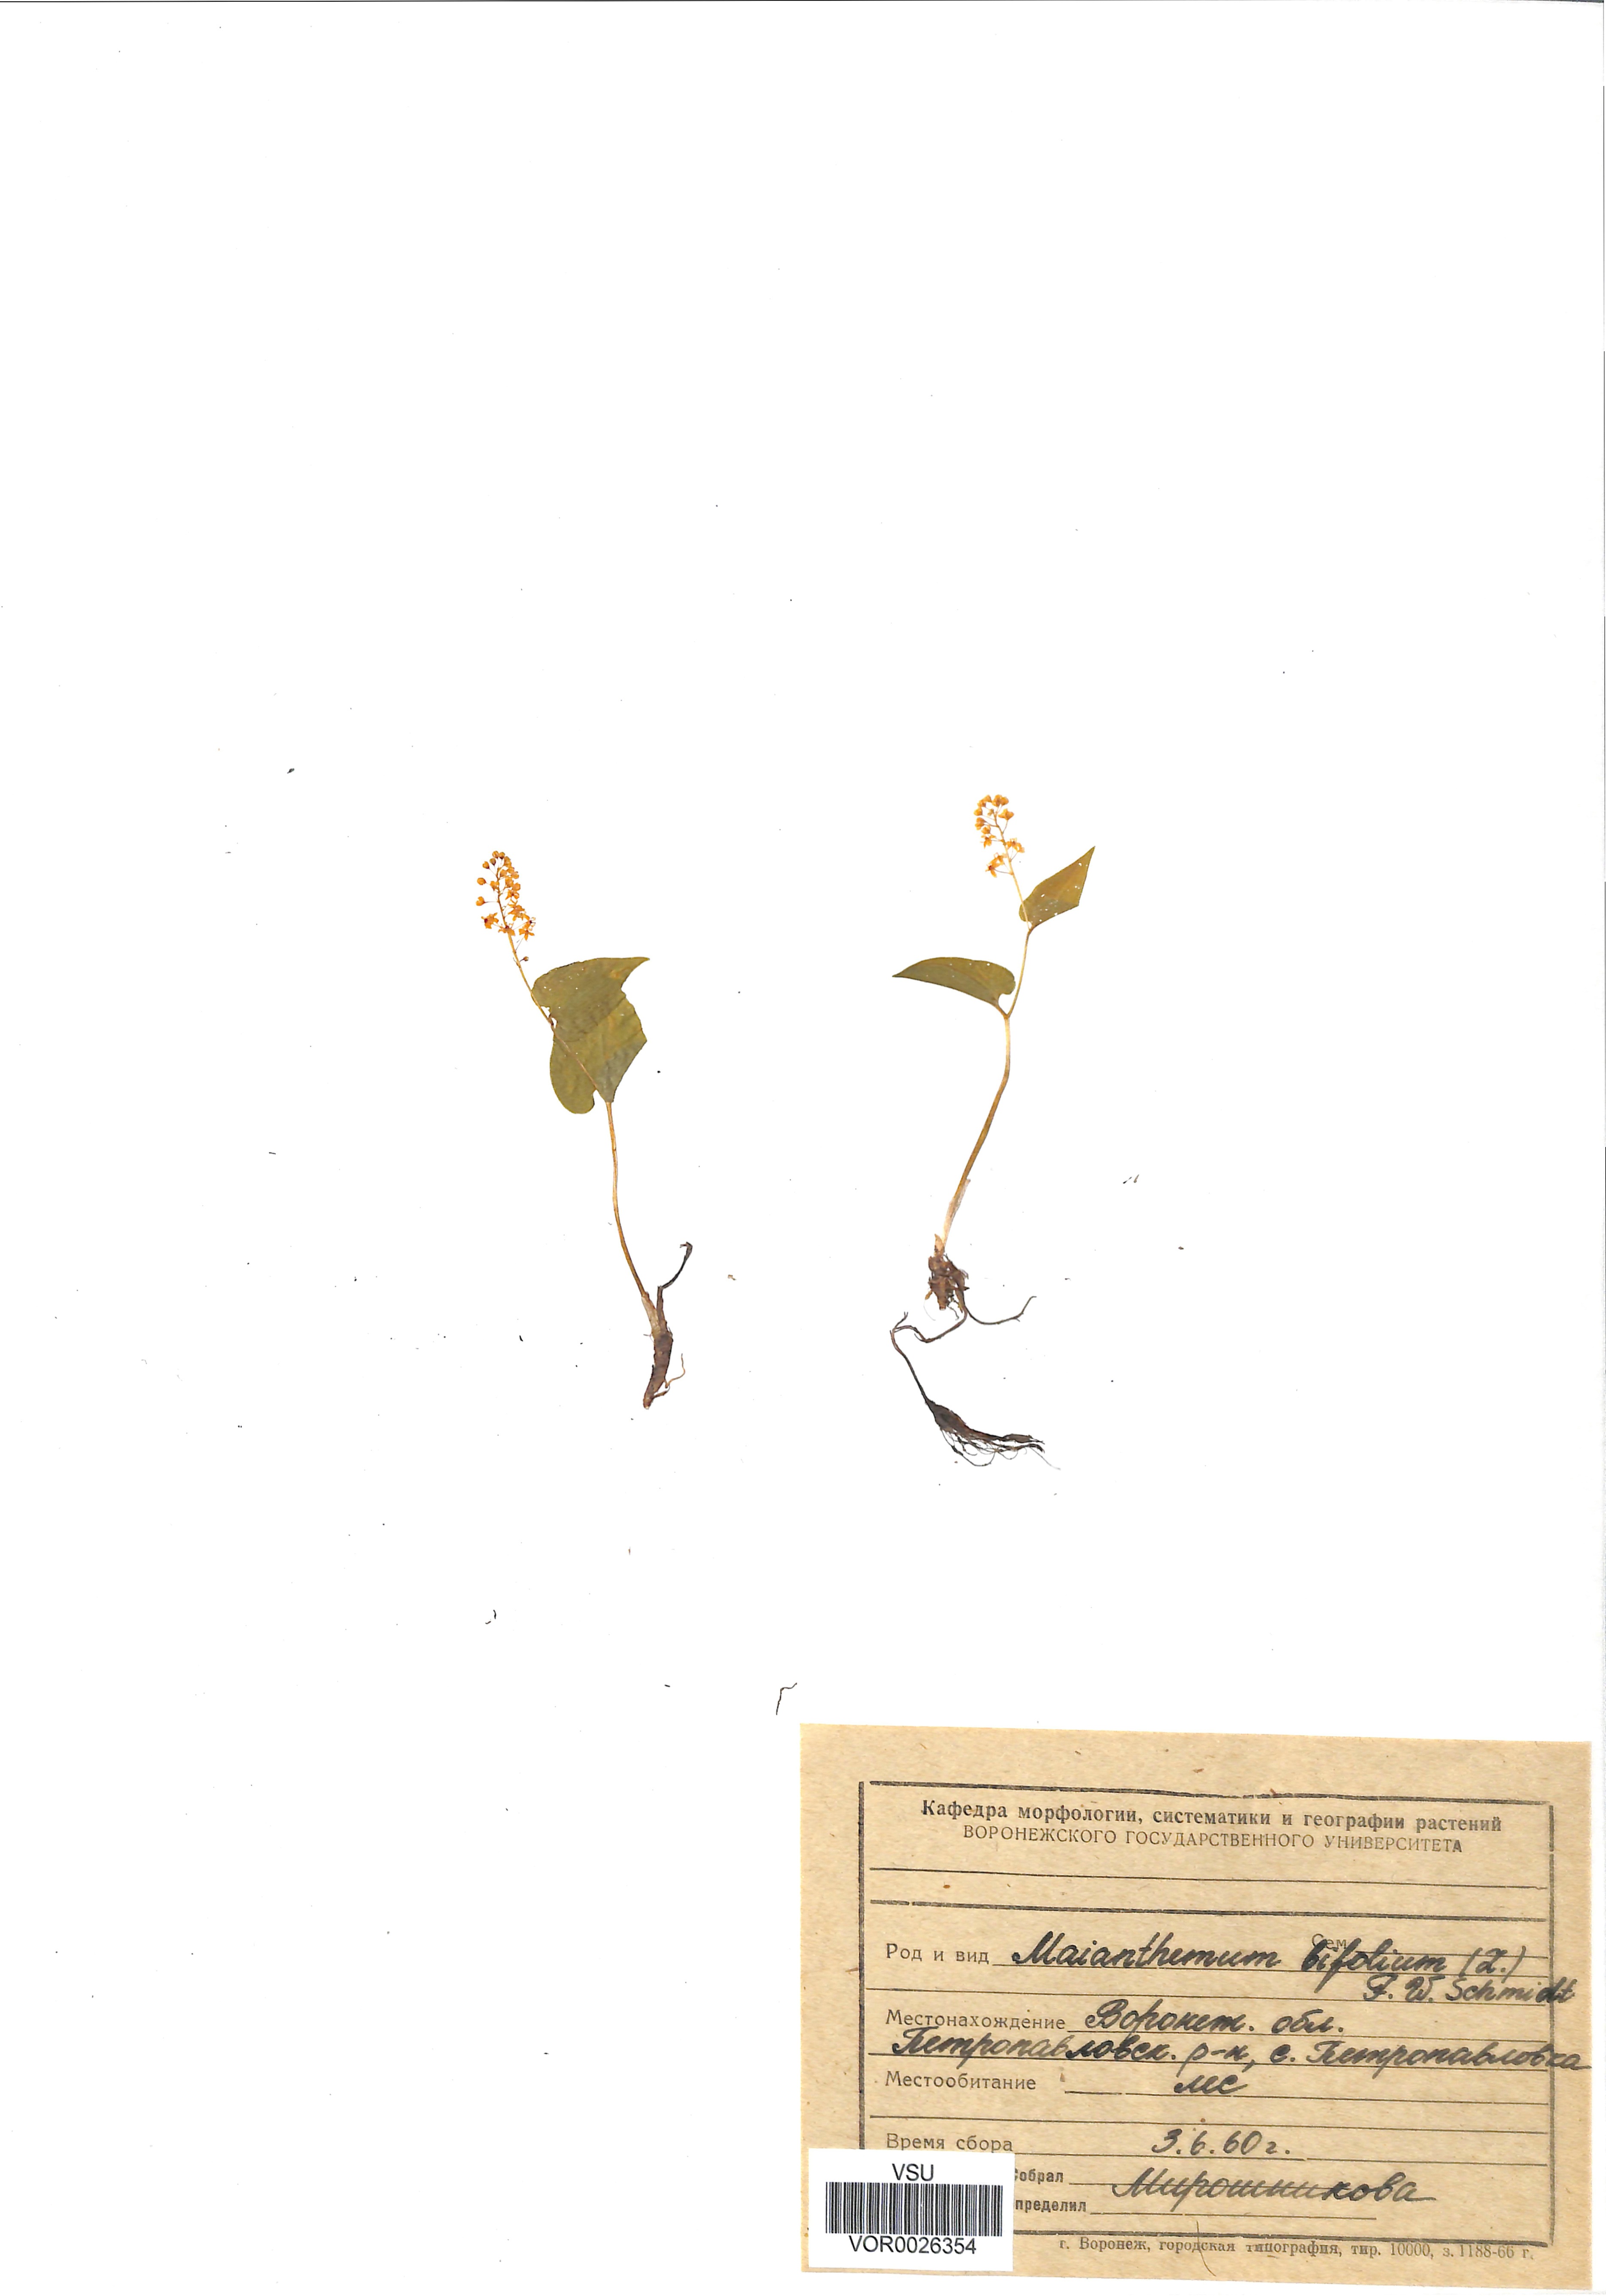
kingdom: Plantae
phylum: Tracheophyta
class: Liliopsida
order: Asparagales
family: Asparagaceae
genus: Maianthemum
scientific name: Maianthemum bifolium
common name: May lily
